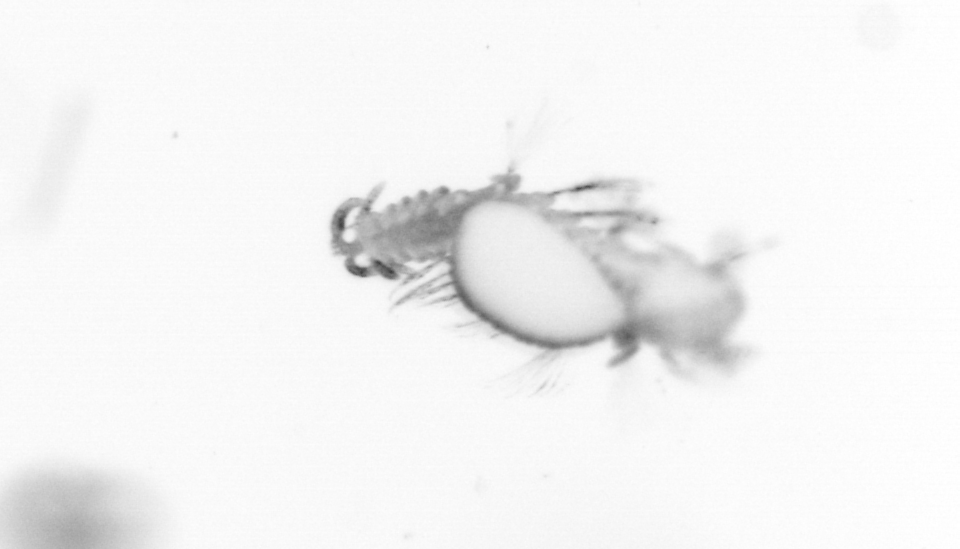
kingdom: Animalia
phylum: Annelida
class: Polychaeta
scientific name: Polychaeta
